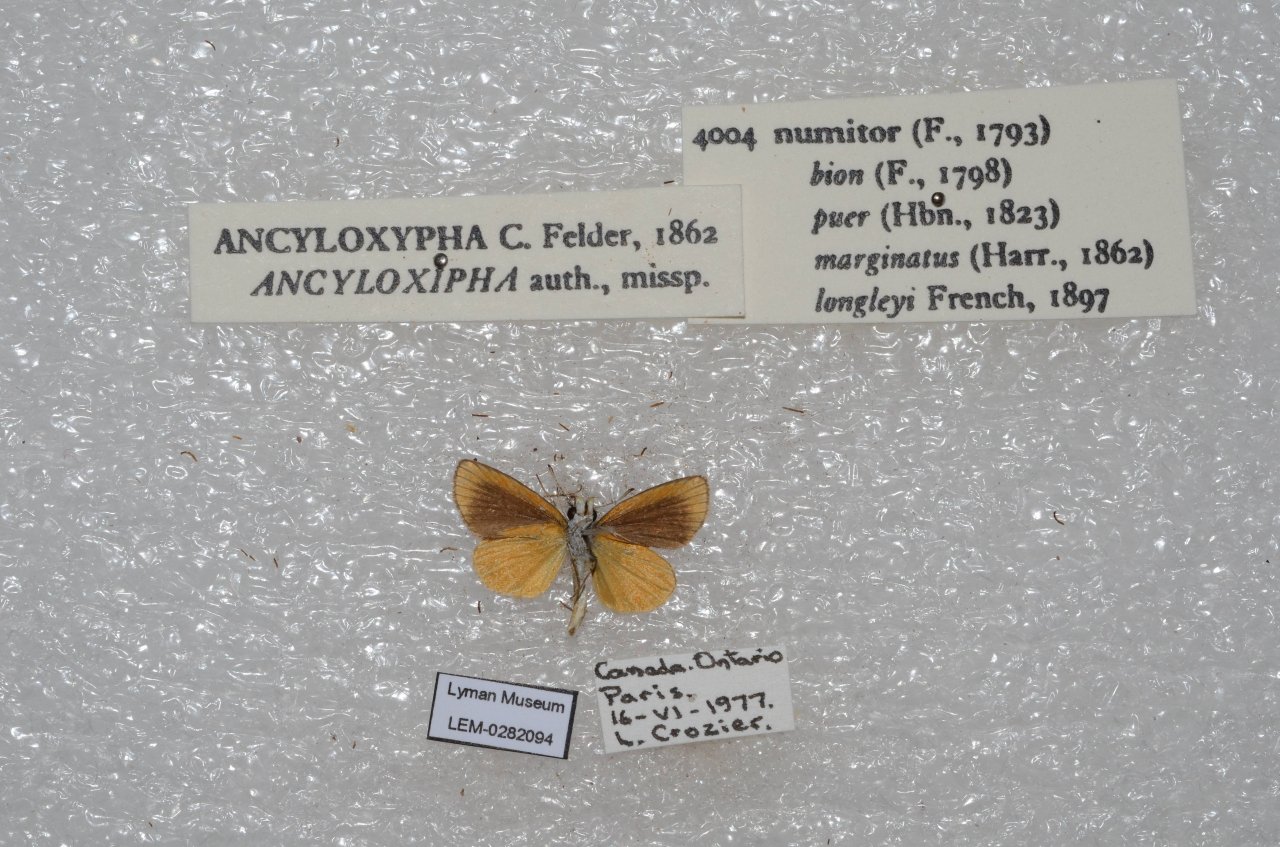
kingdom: Animalia
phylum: Arthropoda
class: Insecta
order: Lepidoptera
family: Hesperiidae
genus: Ancyloxypha
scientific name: Ancyloxypha numitor
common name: Least Skipper
